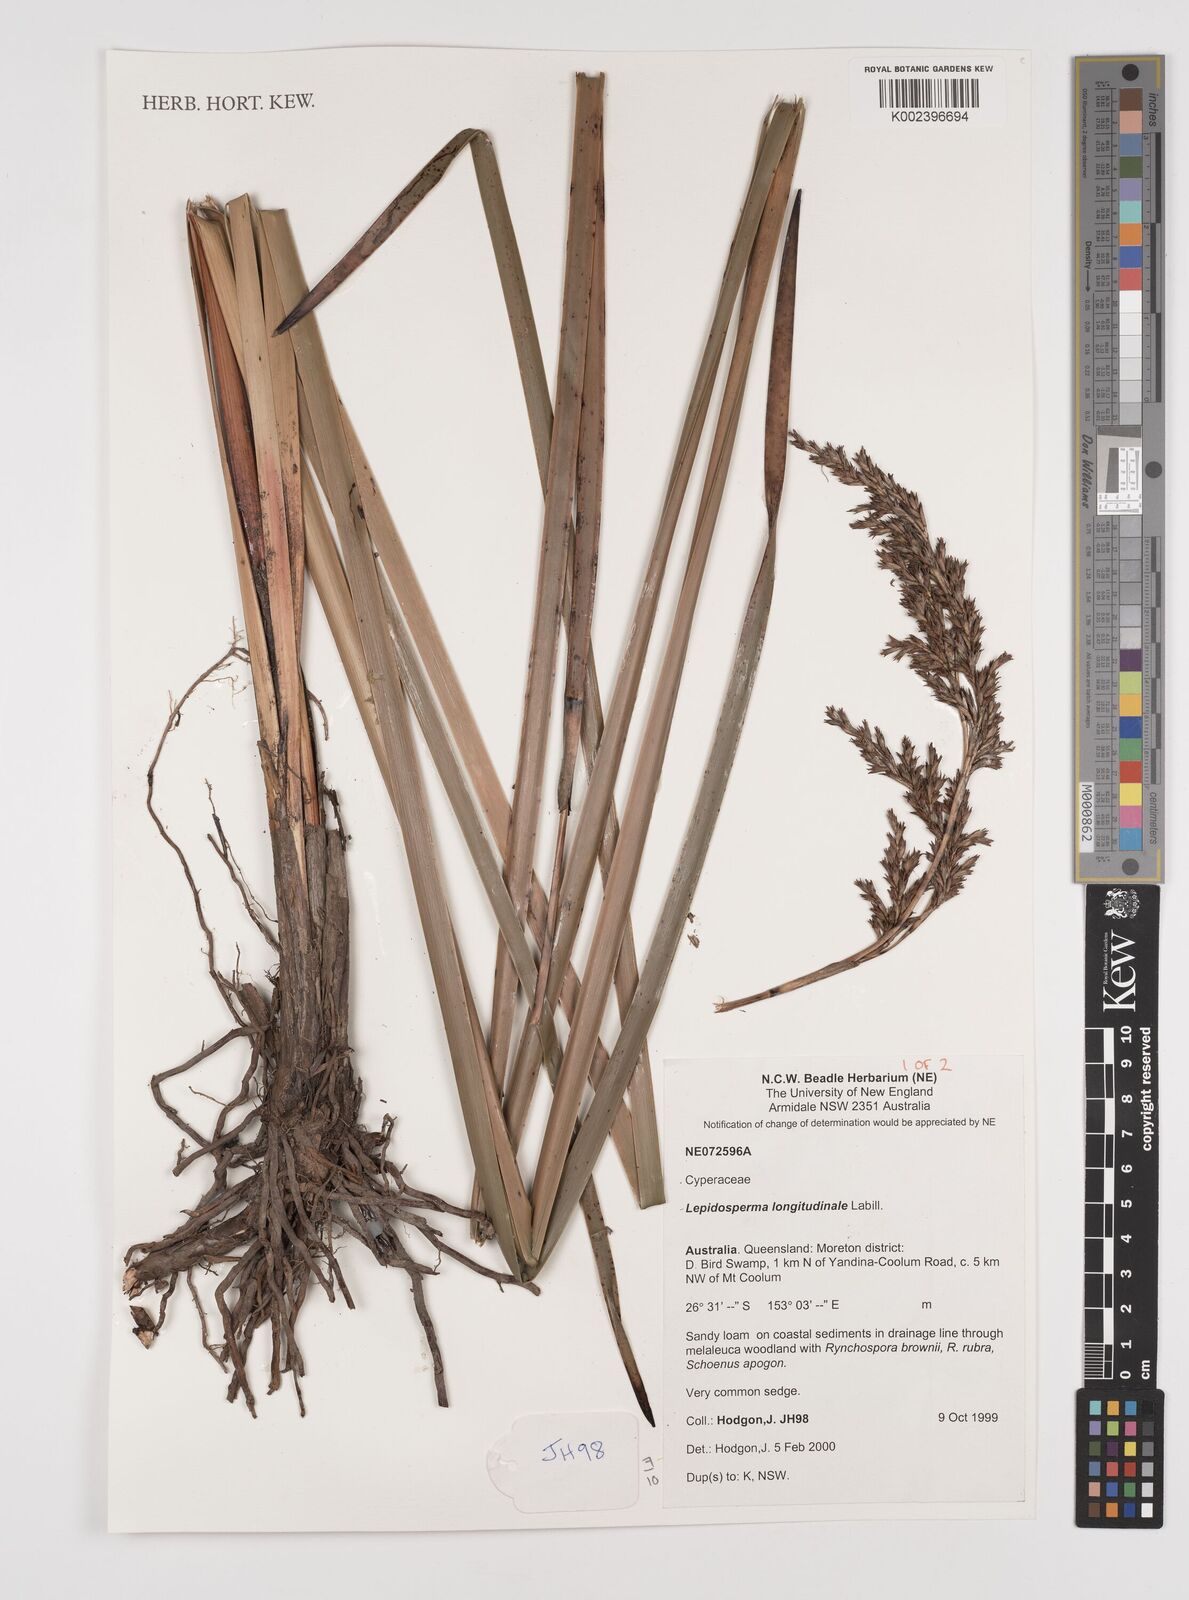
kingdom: Plantae
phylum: Tracheophyta
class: Liliopsida
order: Poales
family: Cyperaceae
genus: Lepidosperma
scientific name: Lepidosperma longitudinale
